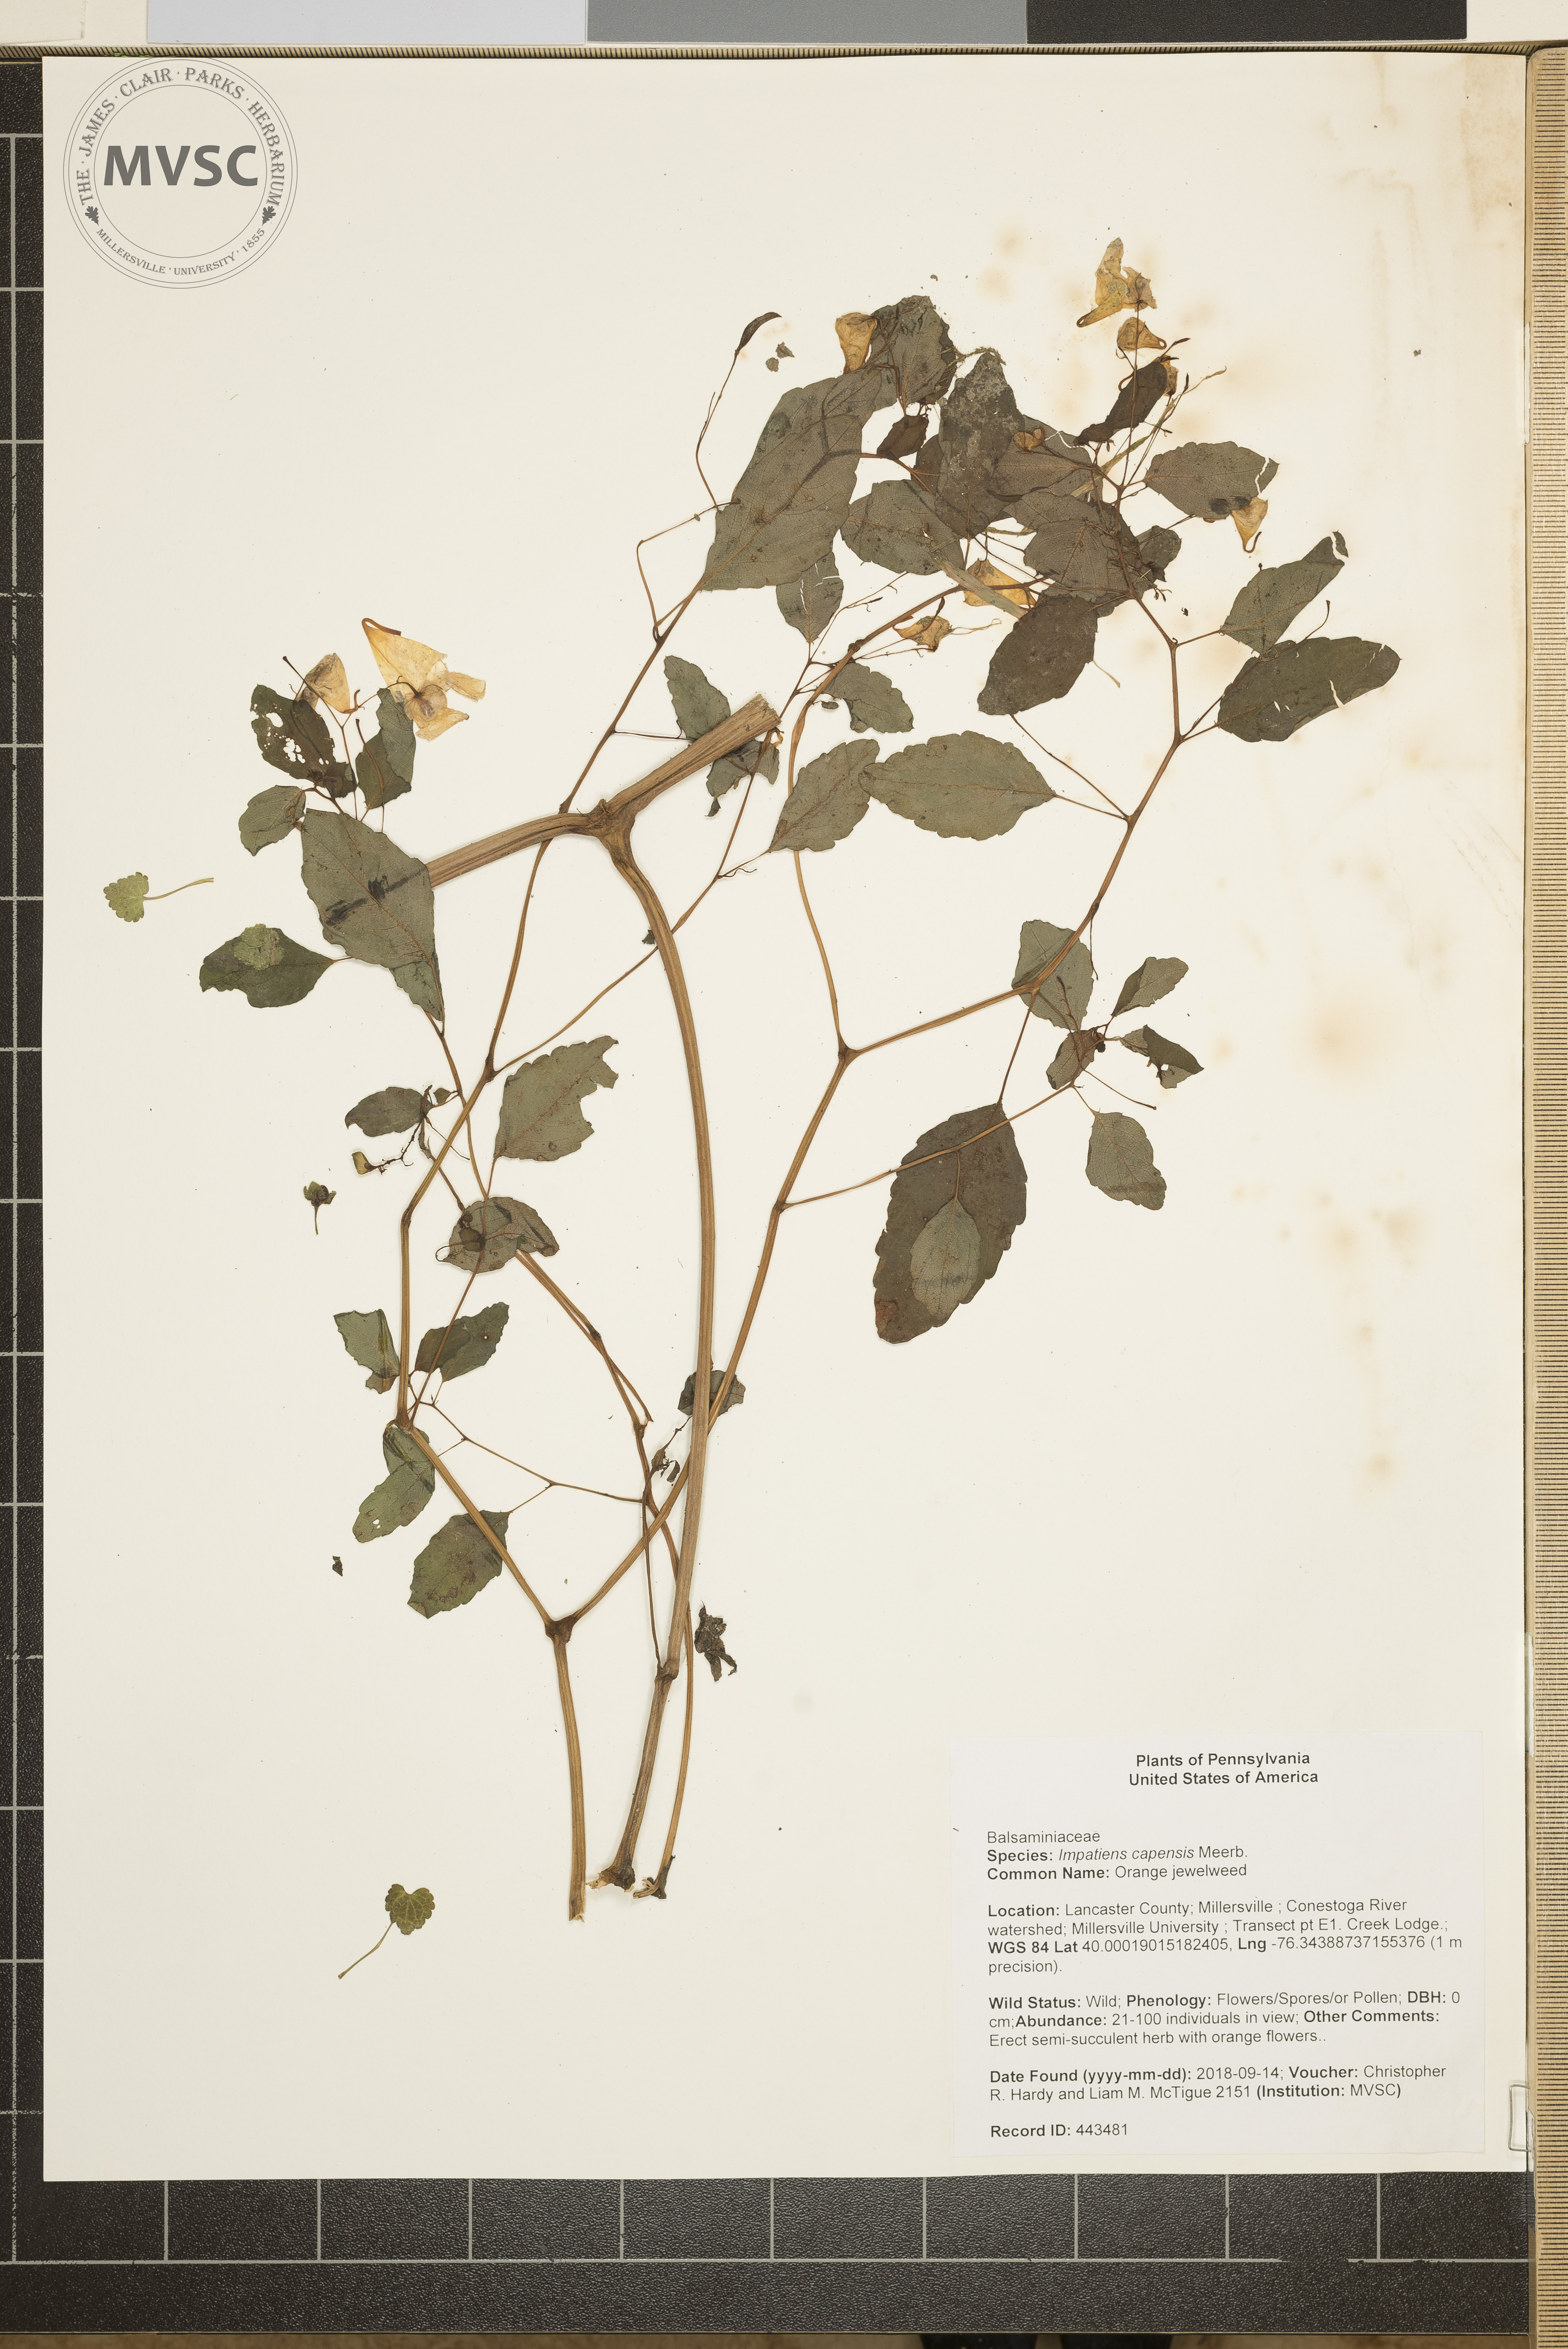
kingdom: Plantae
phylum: Tracheophyta
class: Magnoliopsida
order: Ericales
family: Balsaminaceae
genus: Impatiens
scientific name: Impatiens capensis
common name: Orange jewelweed
